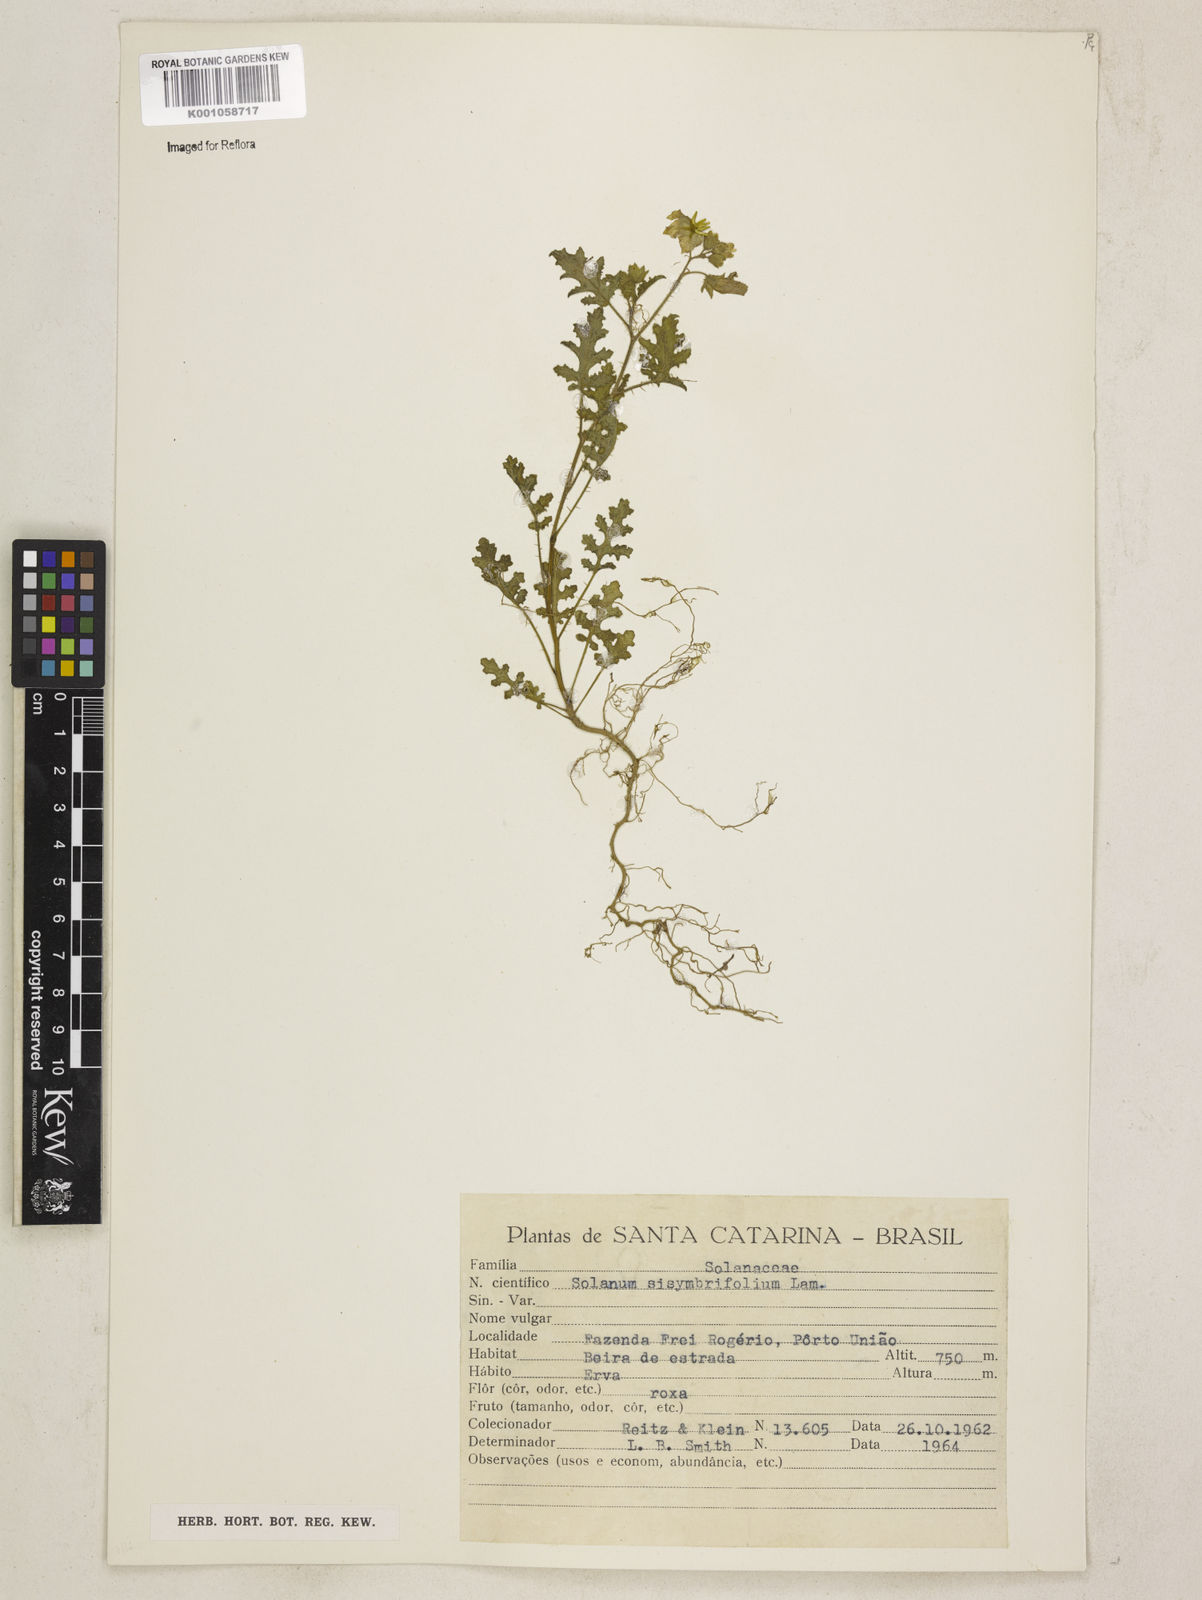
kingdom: Plantae
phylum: Tracheophyta
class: Magnoliopsida
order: Solanales
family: Solanaceae
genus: Solanum
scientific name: Solanum sisymbriifolium
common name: Red buffalo-bur
